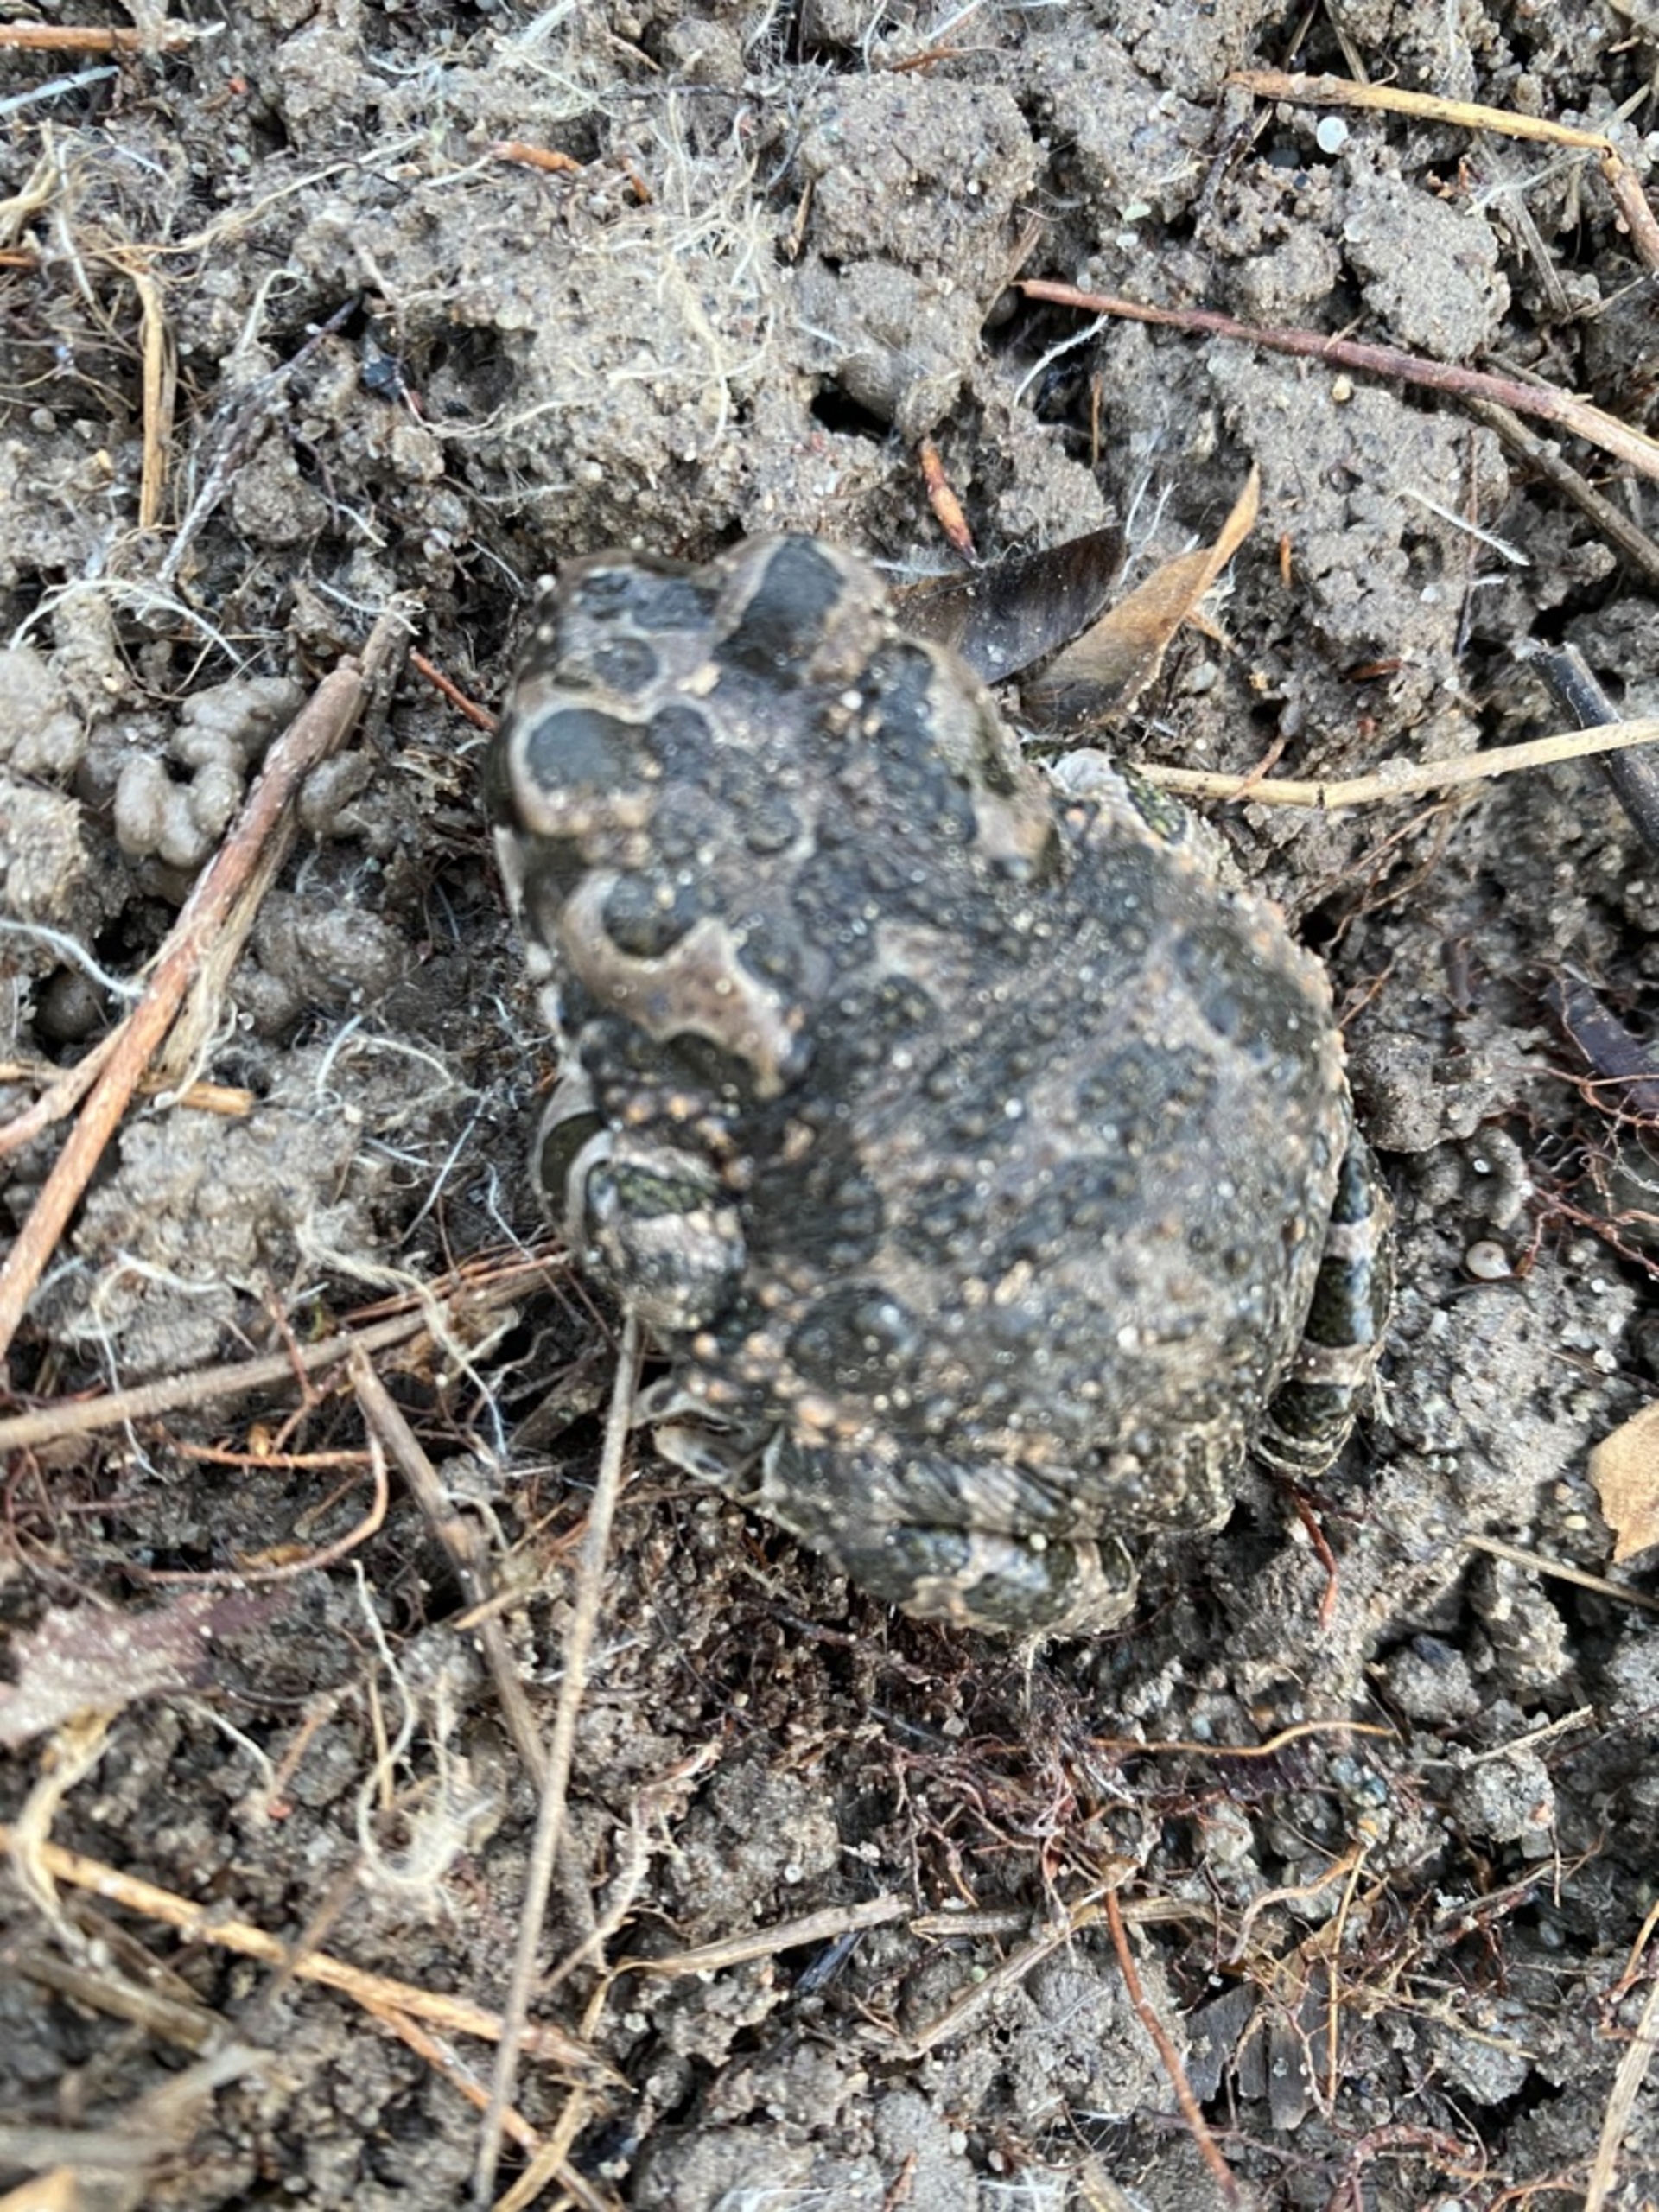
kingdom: Animalia
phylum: Chordata
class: Amphibia
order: Anura
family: Bufonidae
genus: Bufotes
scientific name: Bufotes viridis
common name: Grønbroget tudse
